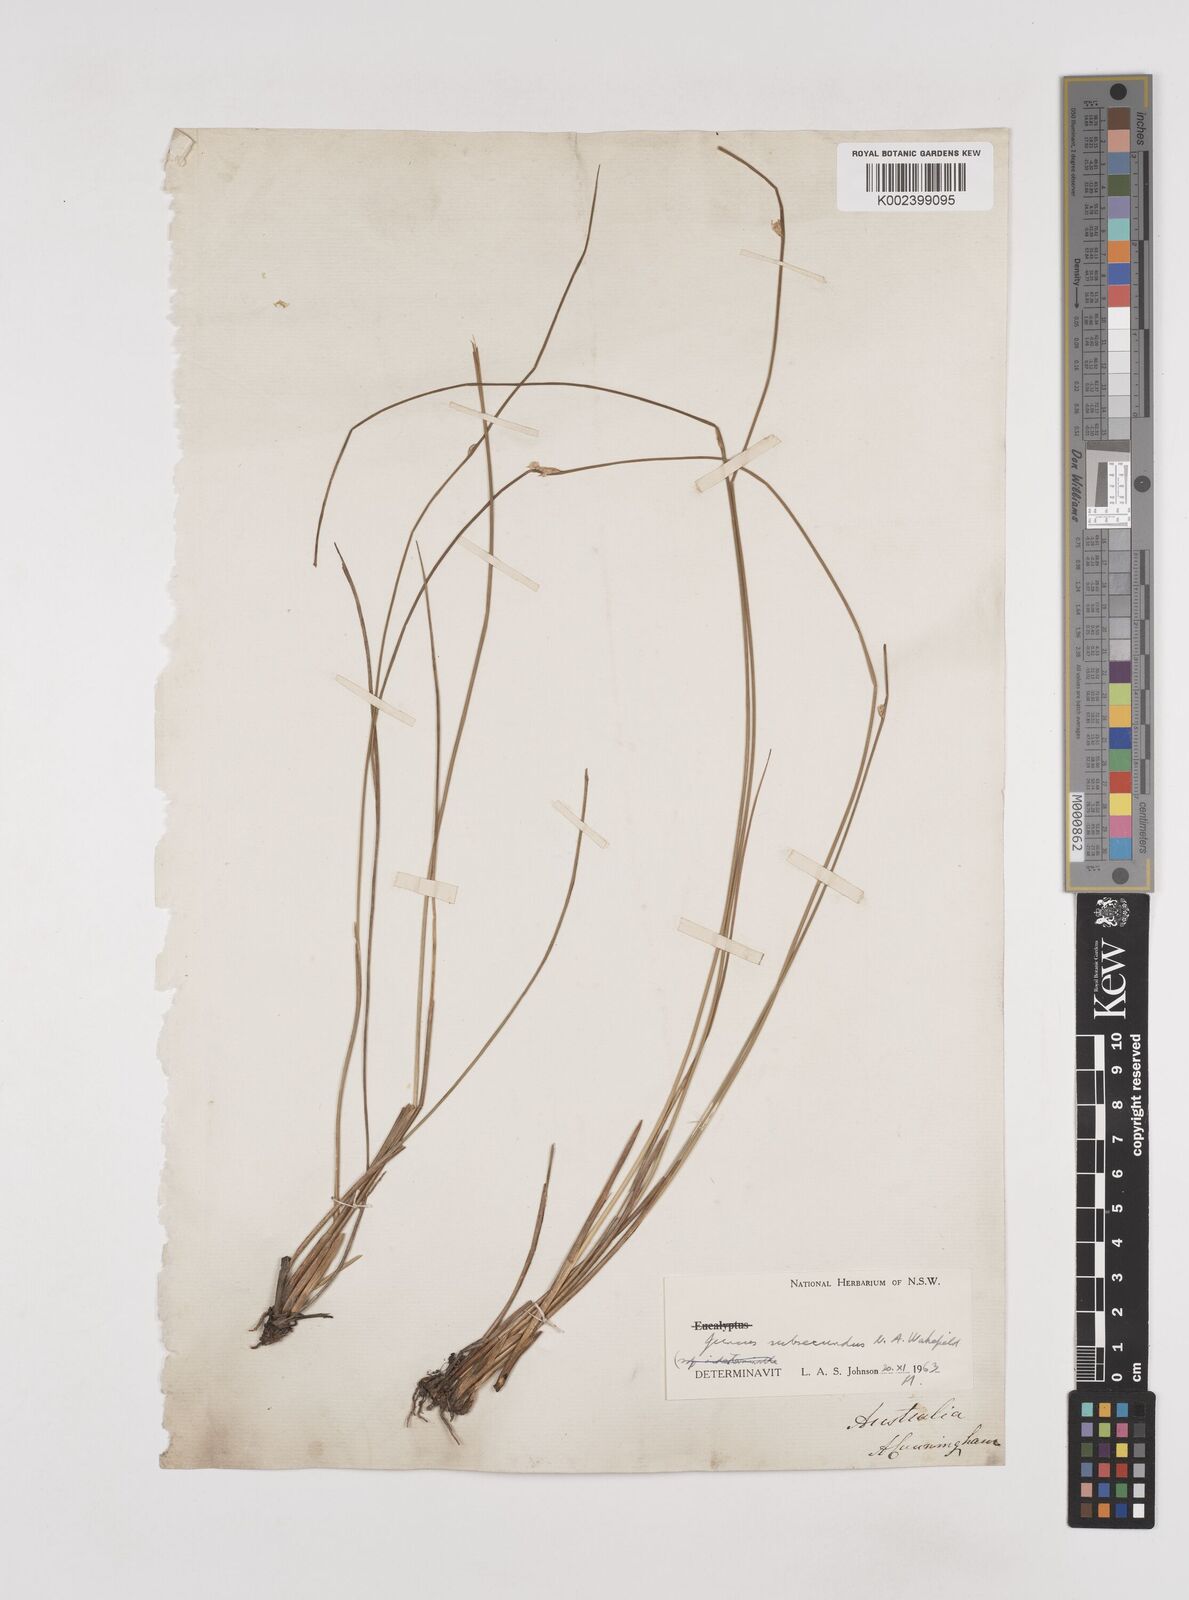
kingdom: Plantae
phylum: Tracheophyta
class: Liliopsida
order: Poales
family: Juncaceae
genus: Juncus
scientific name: Juncus subsecundus
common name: Fingered rush
